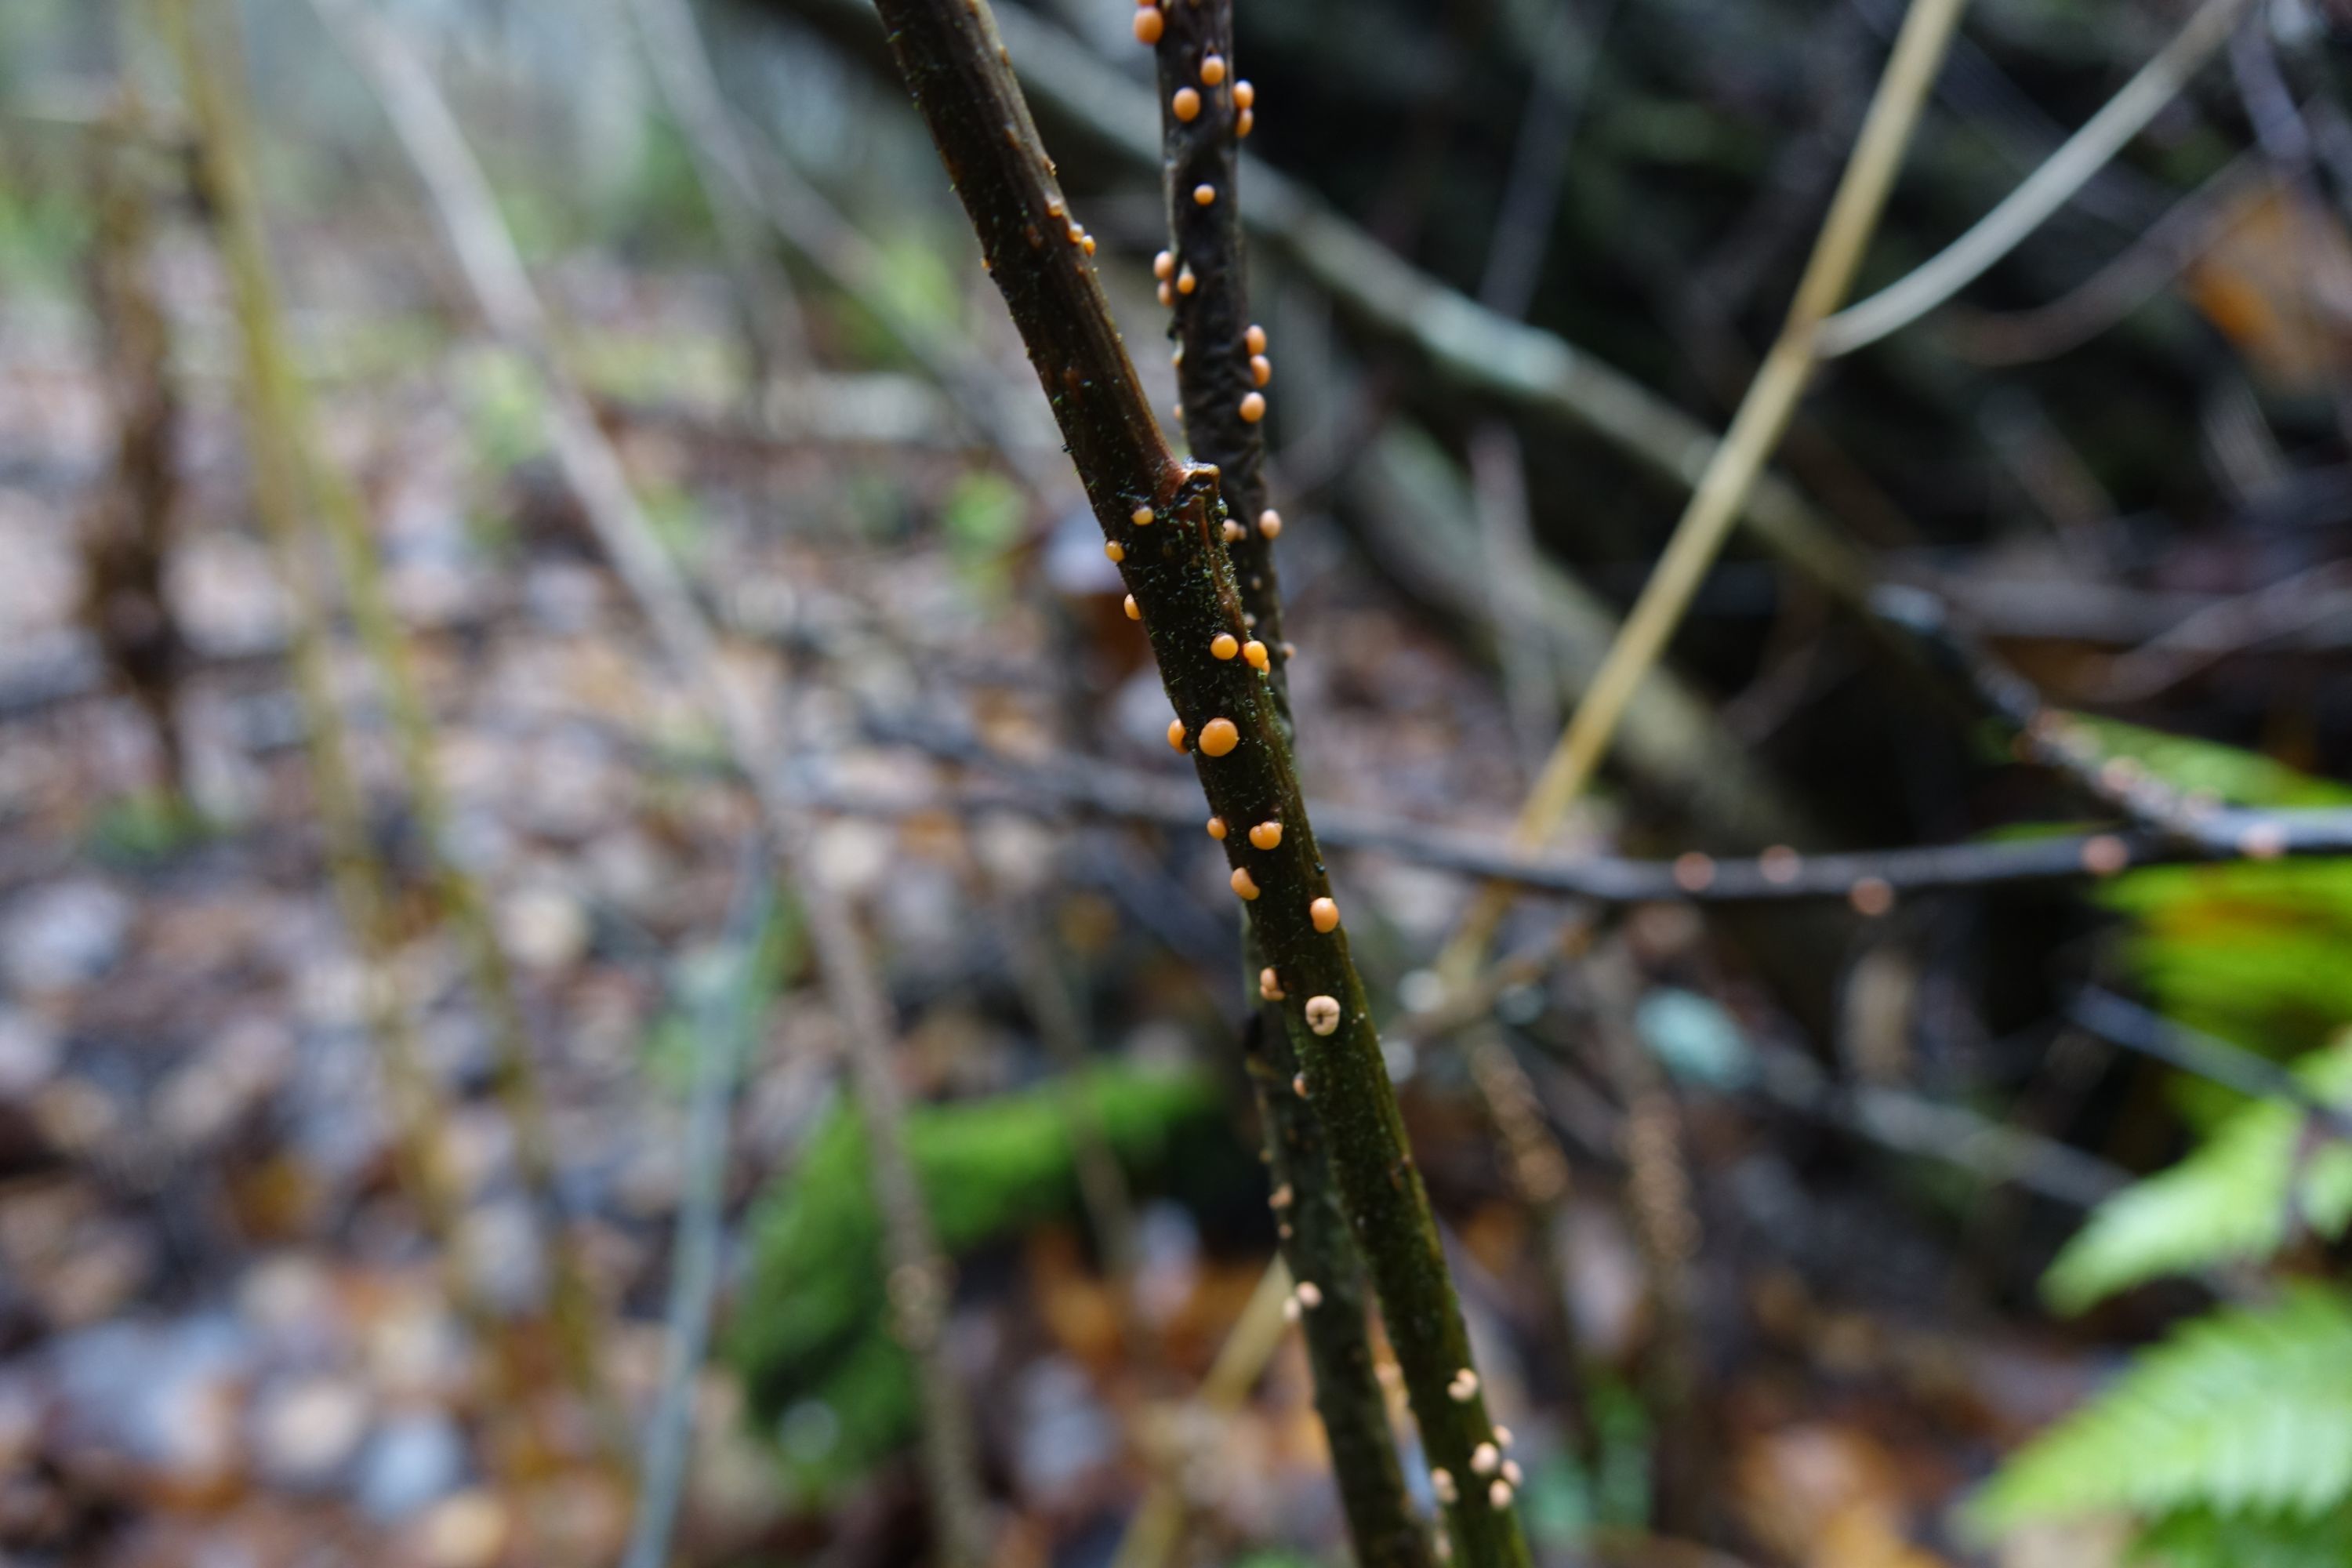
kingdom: Fungi
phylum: Ascomycota
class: Sordariomycetes
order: Hypocreales
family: Nectriaceae
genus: Nectria
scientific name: Nectria cinnabarina
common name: Coral spot
